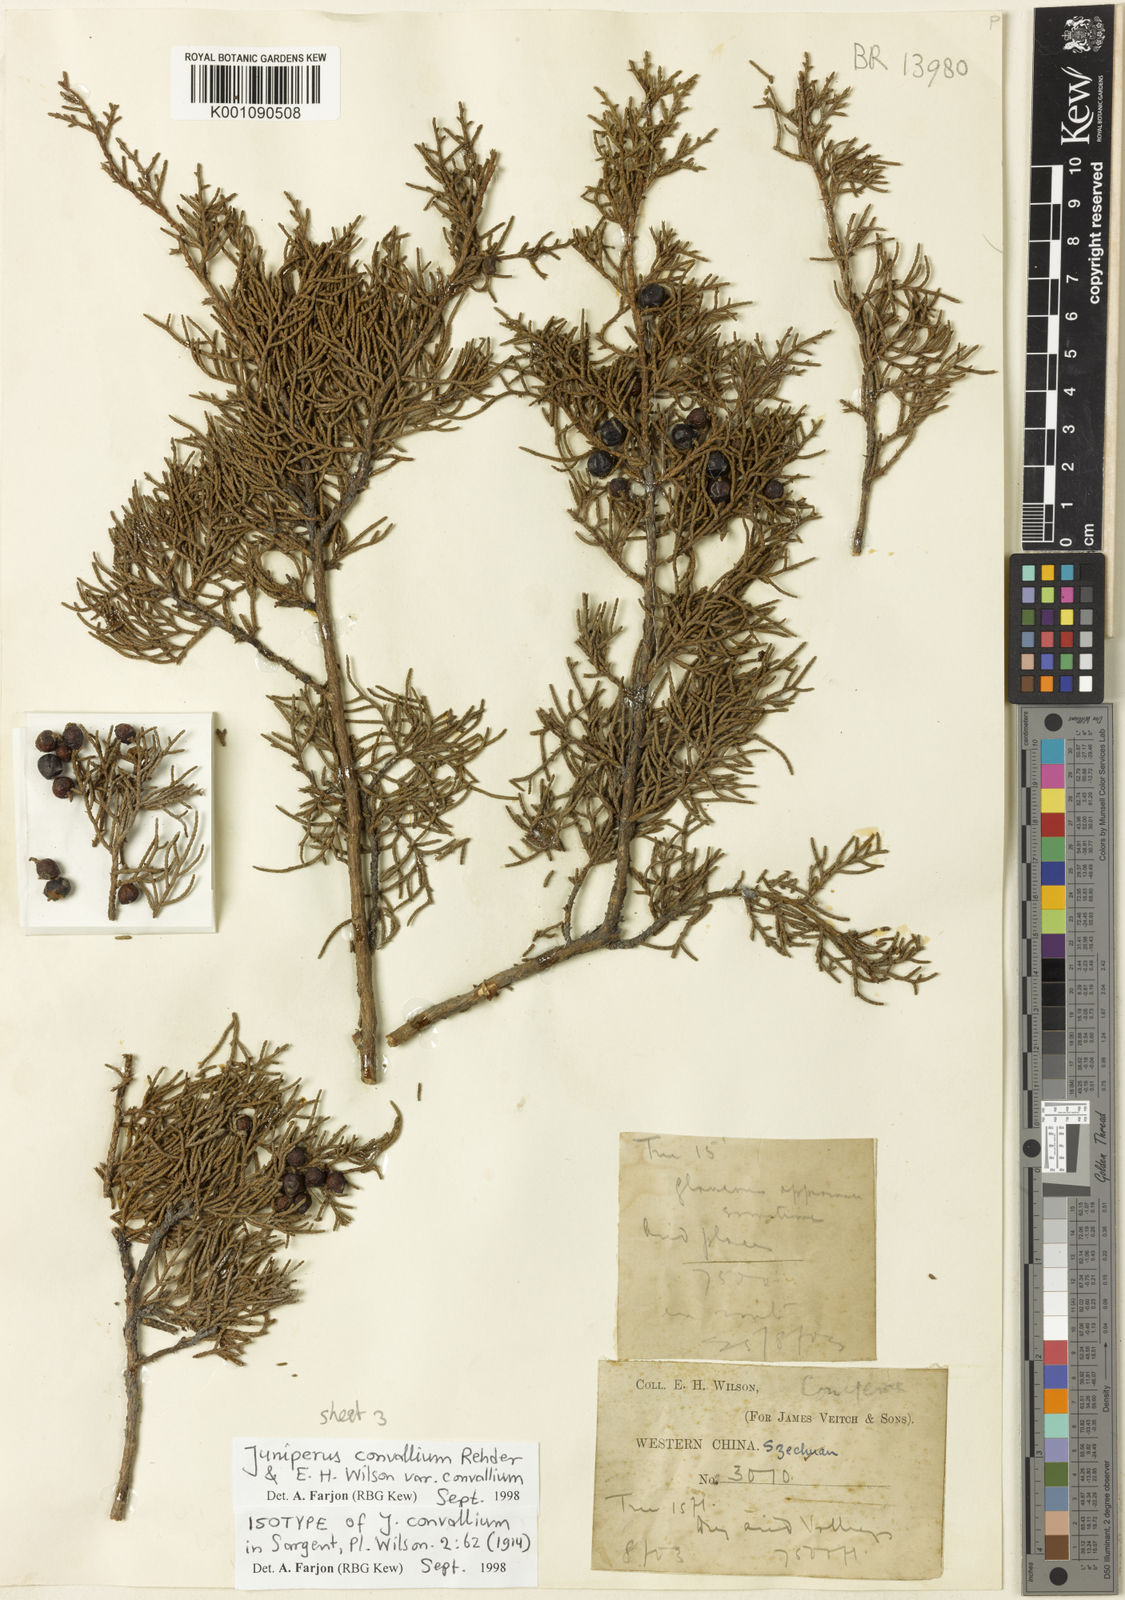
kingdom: Plantae
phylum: Tracheophyta
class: Pinopsida
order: Pinales
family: Cupressaceae
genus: Juniperus
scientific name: Juniperus convallium
